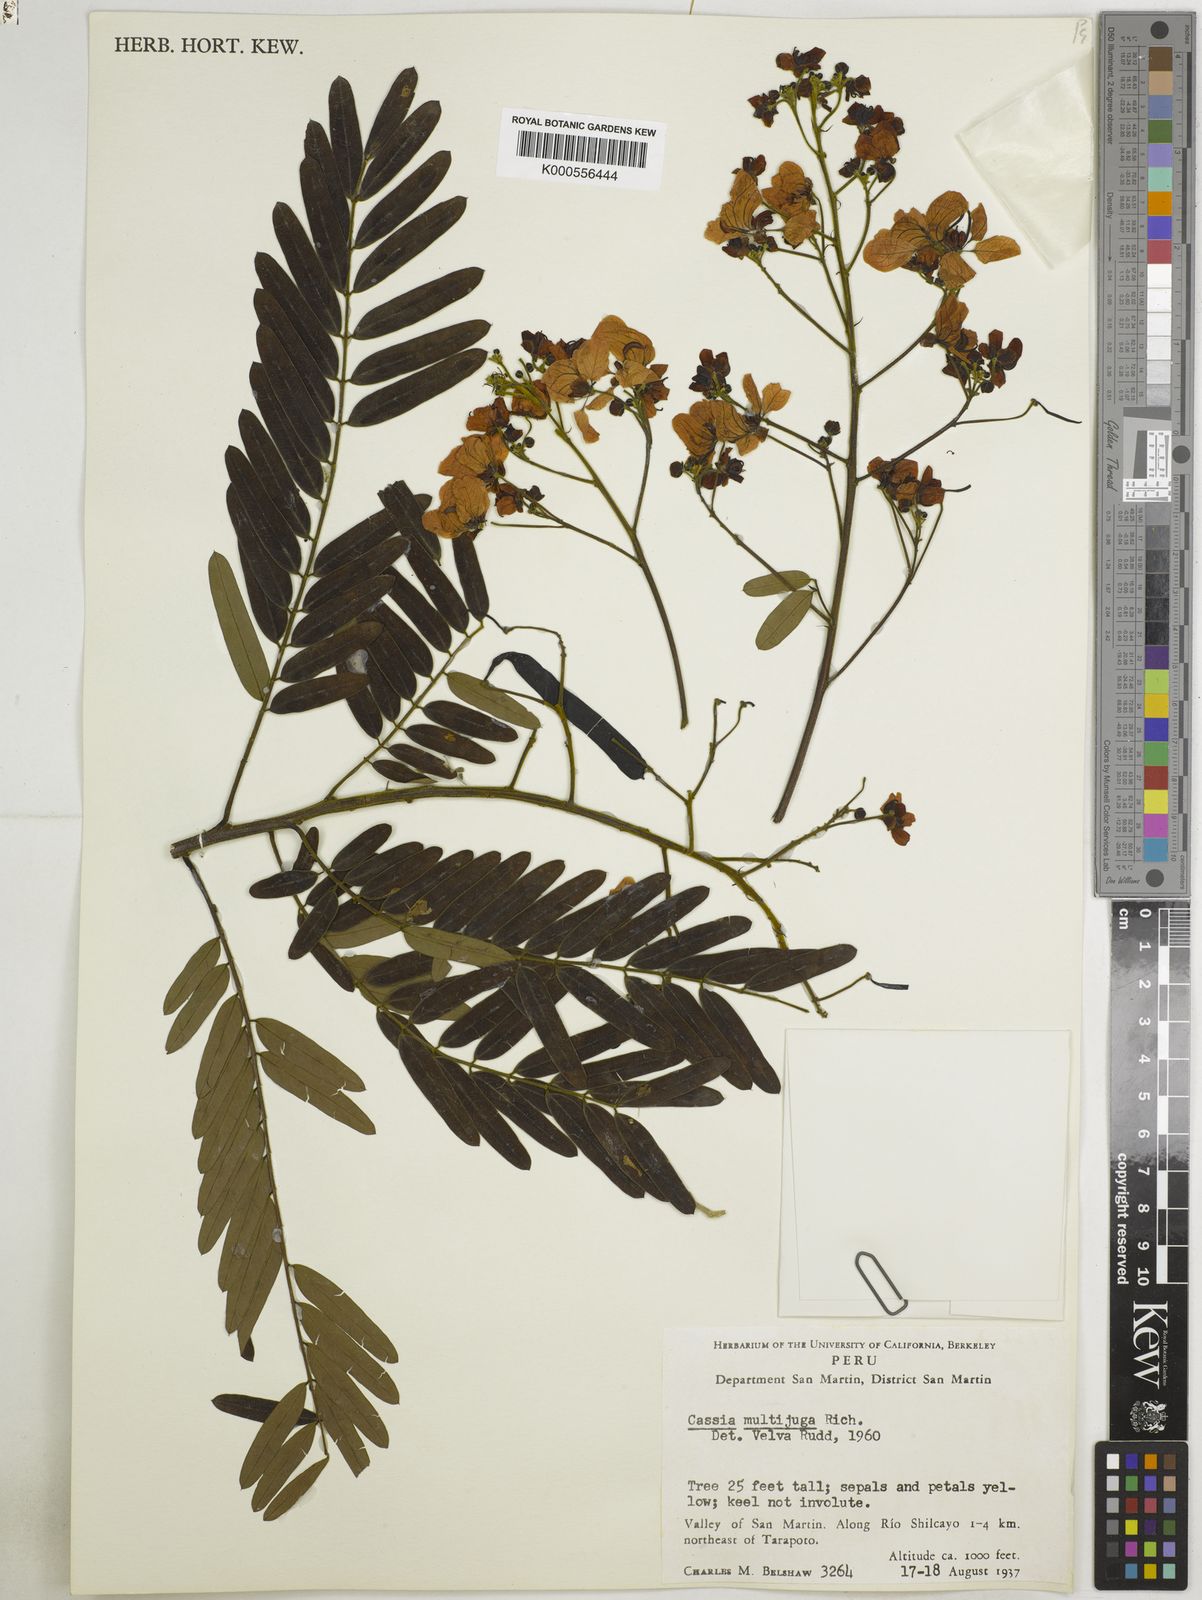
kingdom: Plantae
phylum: Tracheophyta
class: Magnoliopsida
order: Fabales
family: Fabaceae
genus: Senna
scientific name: Senna multijuga
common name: False sicklepod
